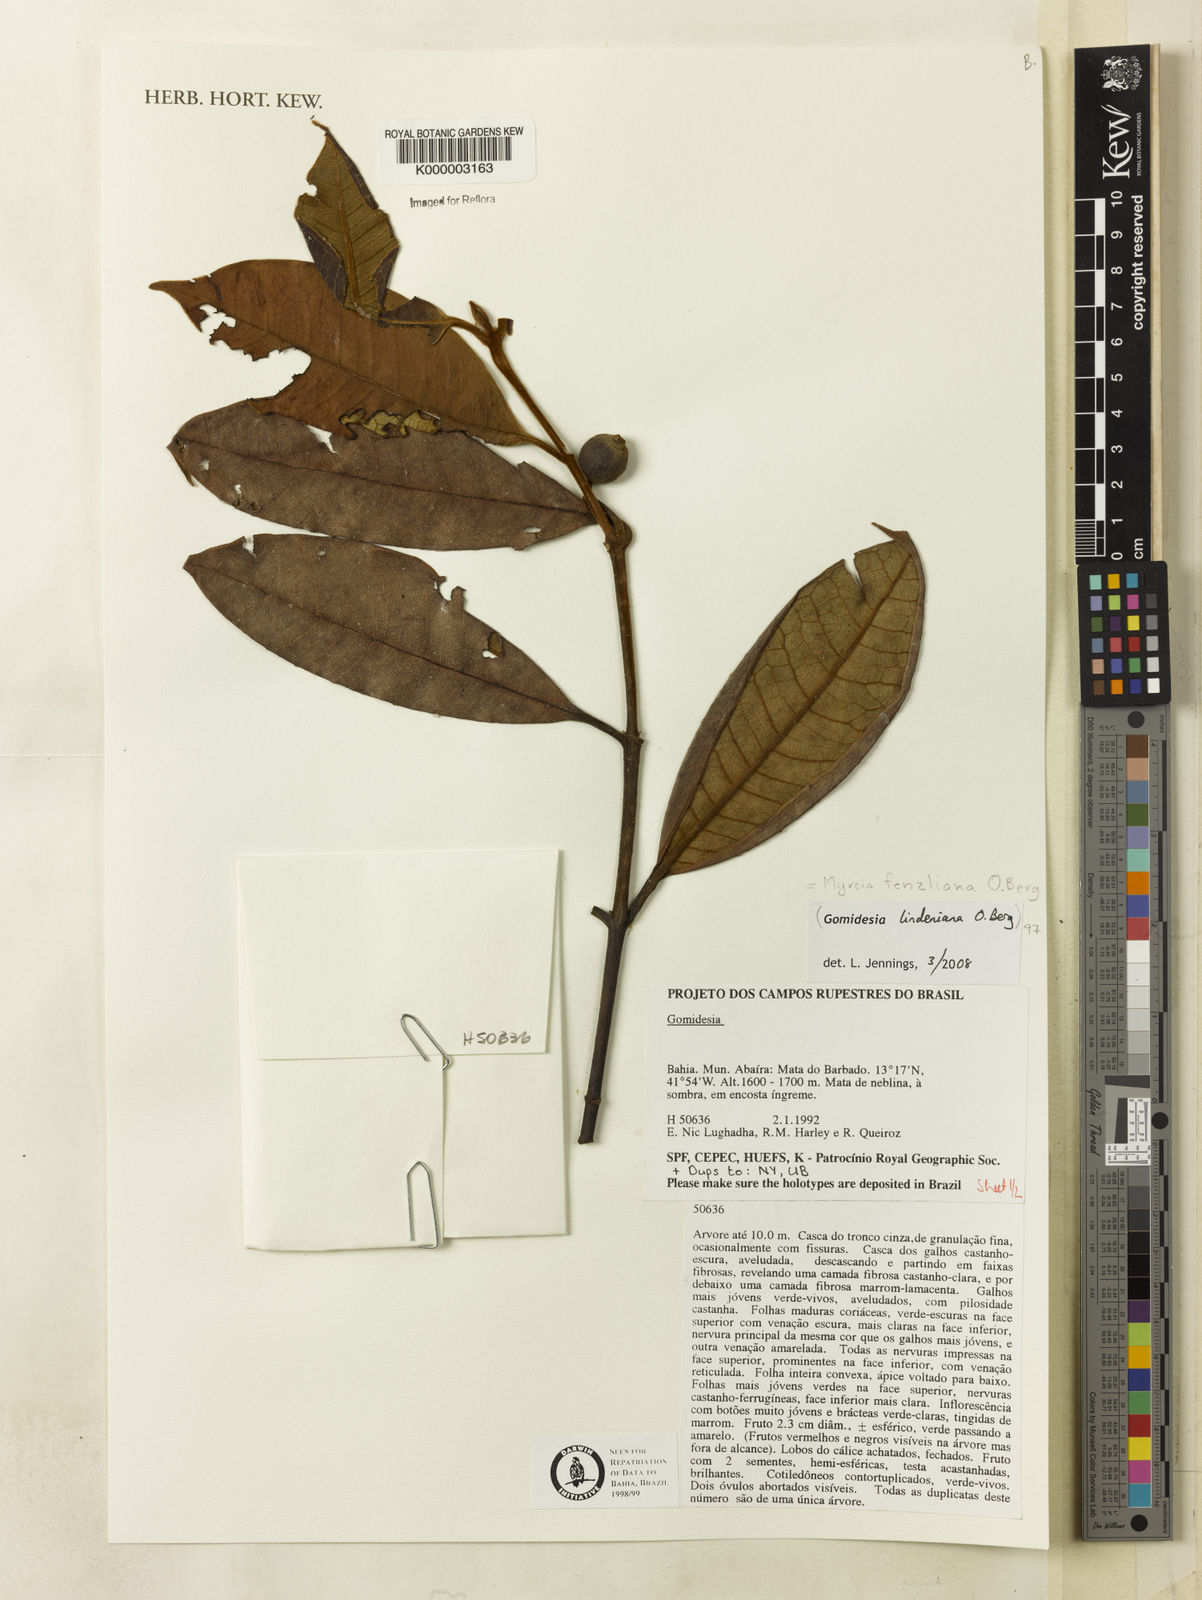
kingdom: Plantae
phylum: Tracheophyta
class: Magnoliopsida
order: Myrtales
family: Myrtaceae
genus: Myrcia
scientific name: Myrcia
